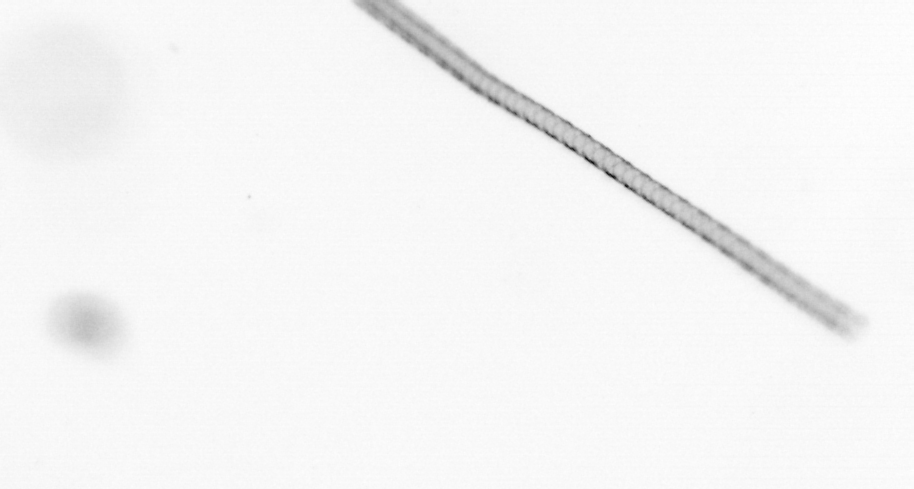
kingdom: Chromista
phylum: Ochrophyta
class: Bacillariophyceae
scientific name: Bacillariophyceae
